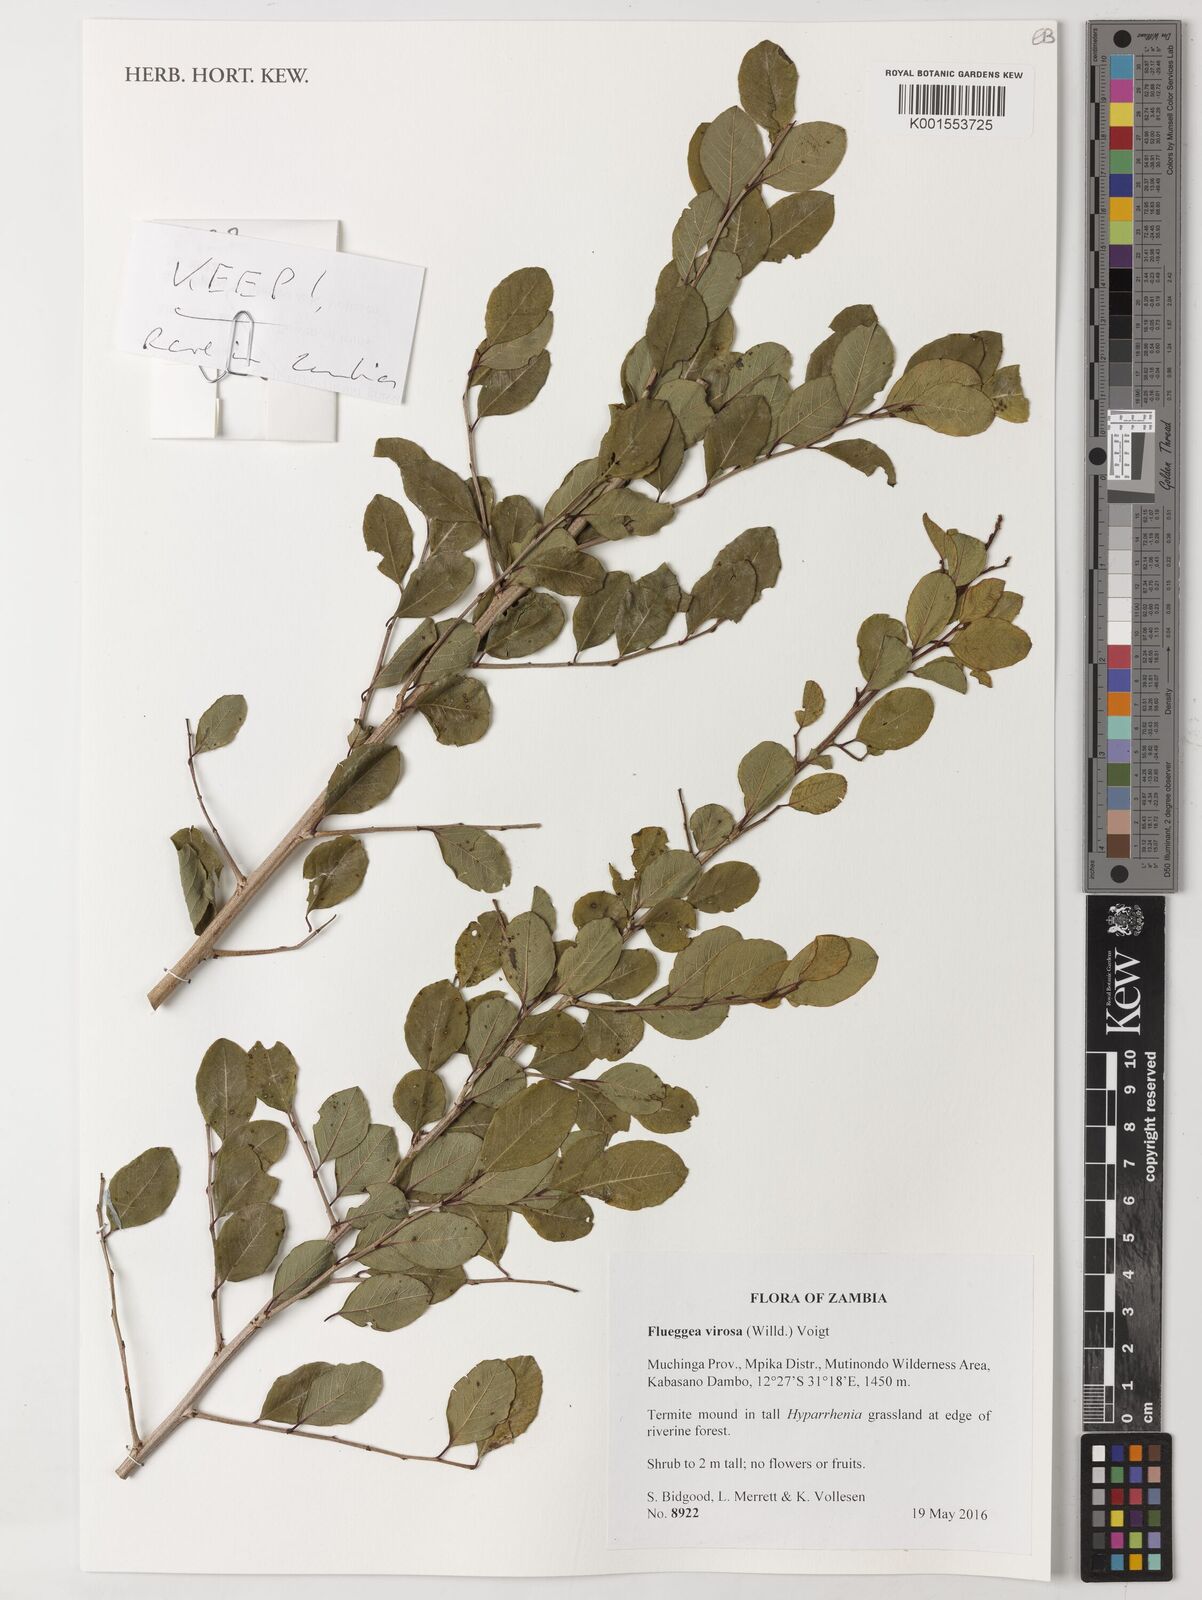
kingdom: Plantae
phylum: Tracheophyta
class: Magnoliopsida
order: Malpighiales
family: Phyllanthaceae
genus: Flueggea
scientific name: Flueggea virosa
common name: Common bushweed
